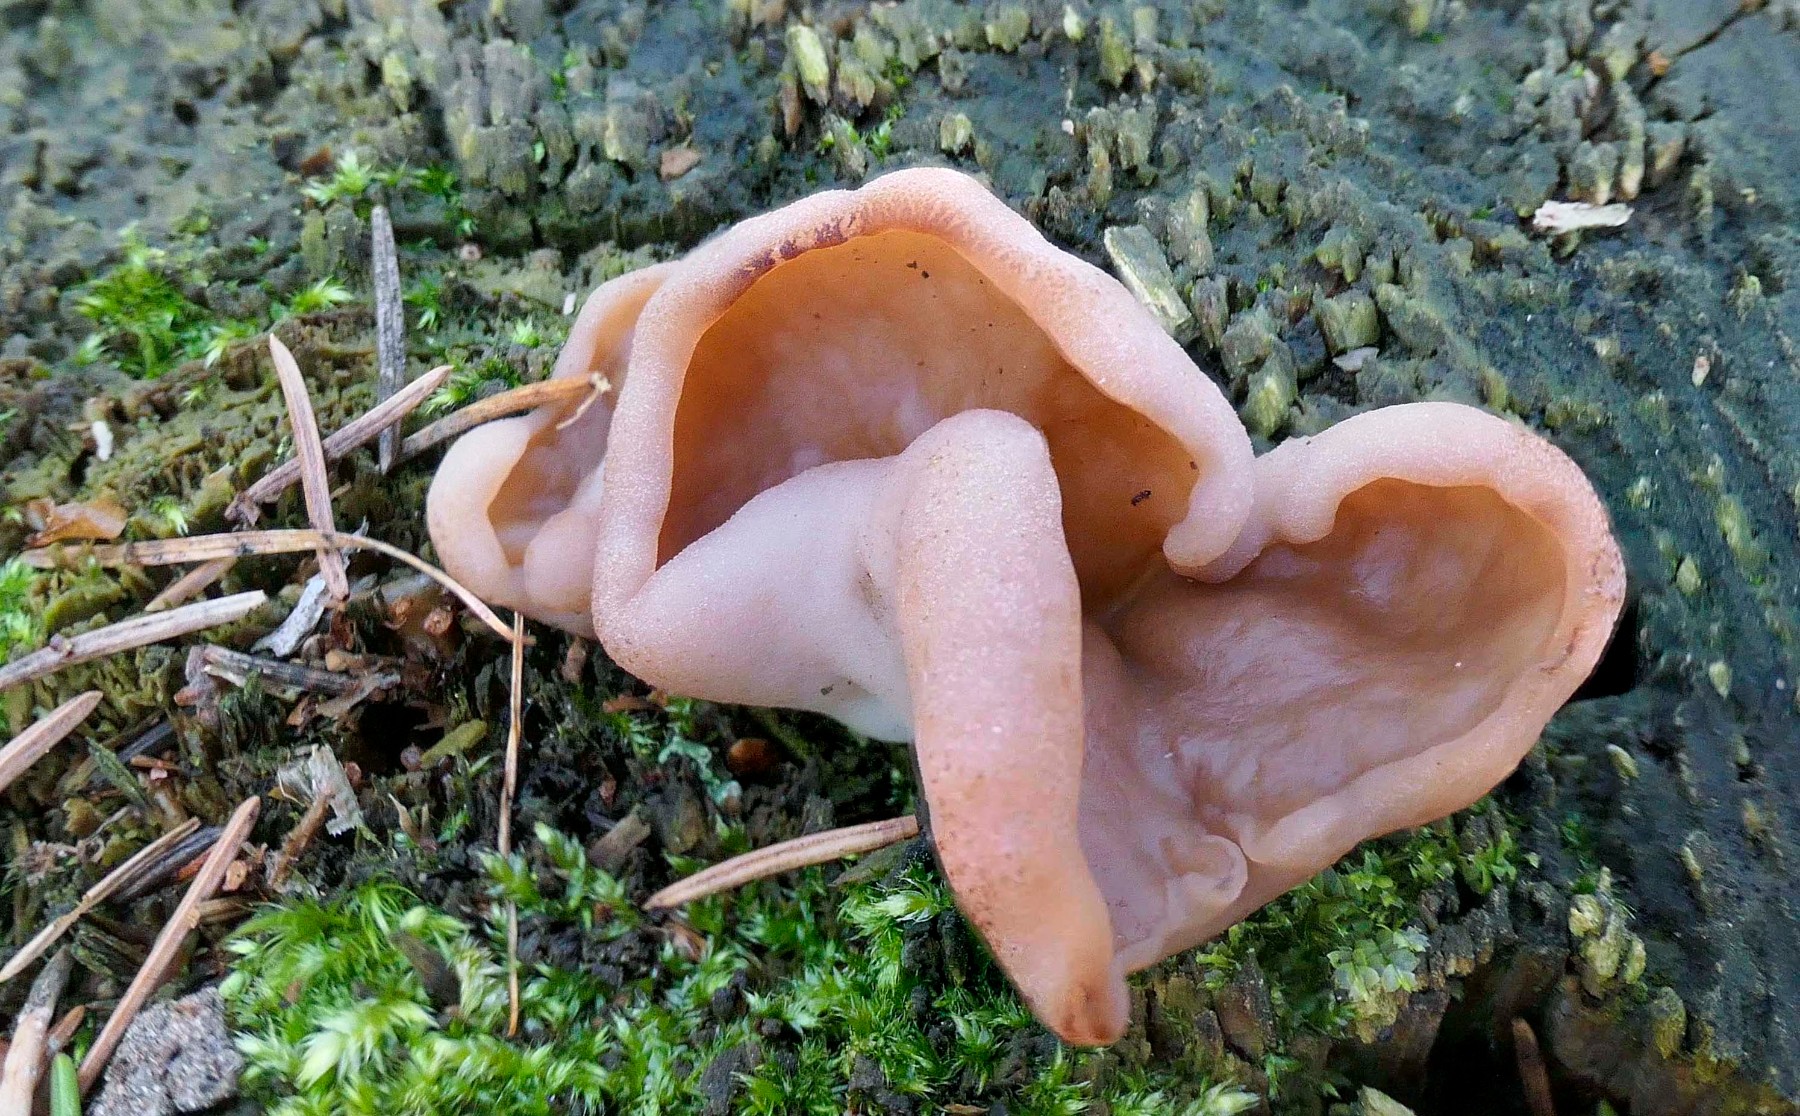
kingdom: Fungi
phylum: Ascomycota
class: Pezizomycetes
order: Pezizales
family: Discinaceae
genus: Discina
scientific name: Discina ancilis
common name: udbredt stenmorkel
